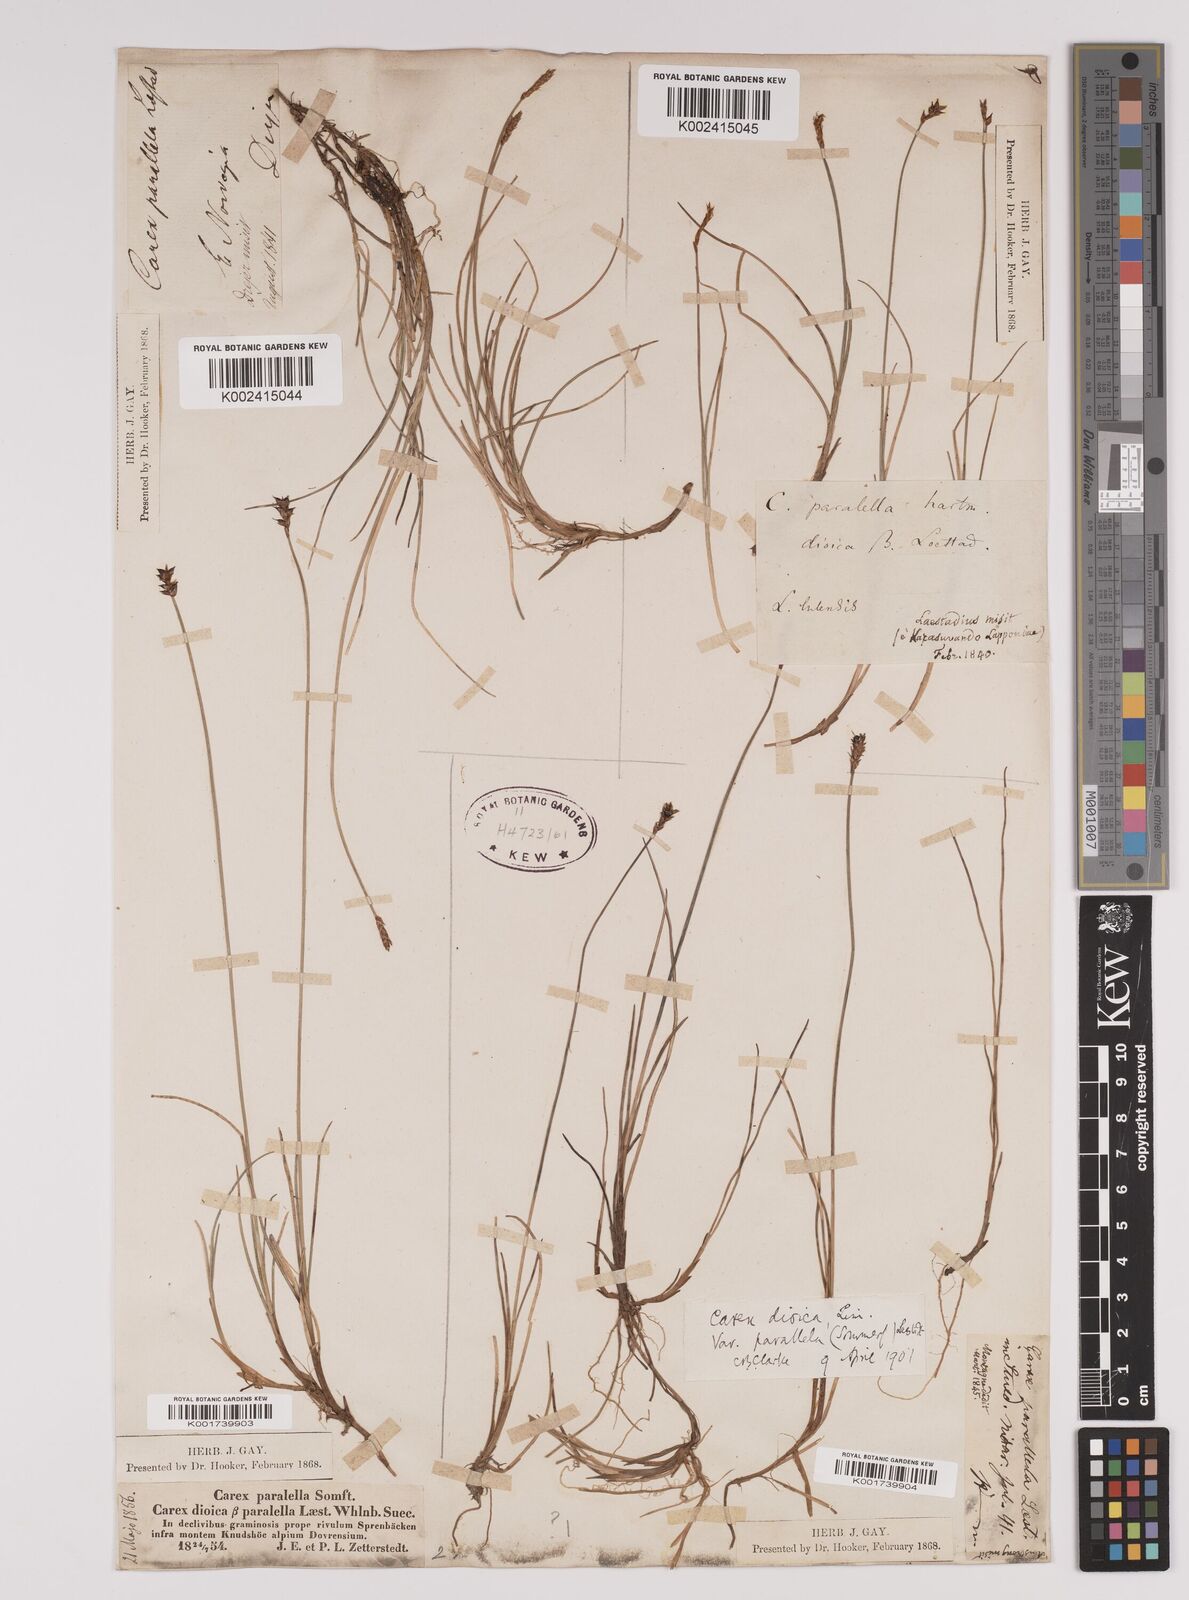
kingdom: Plantae
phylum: Tracheophyta
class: Liliopsida
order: Poales
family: Cyperaceae
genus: Carex
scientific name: Carex parallela
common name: Parallel sedge
